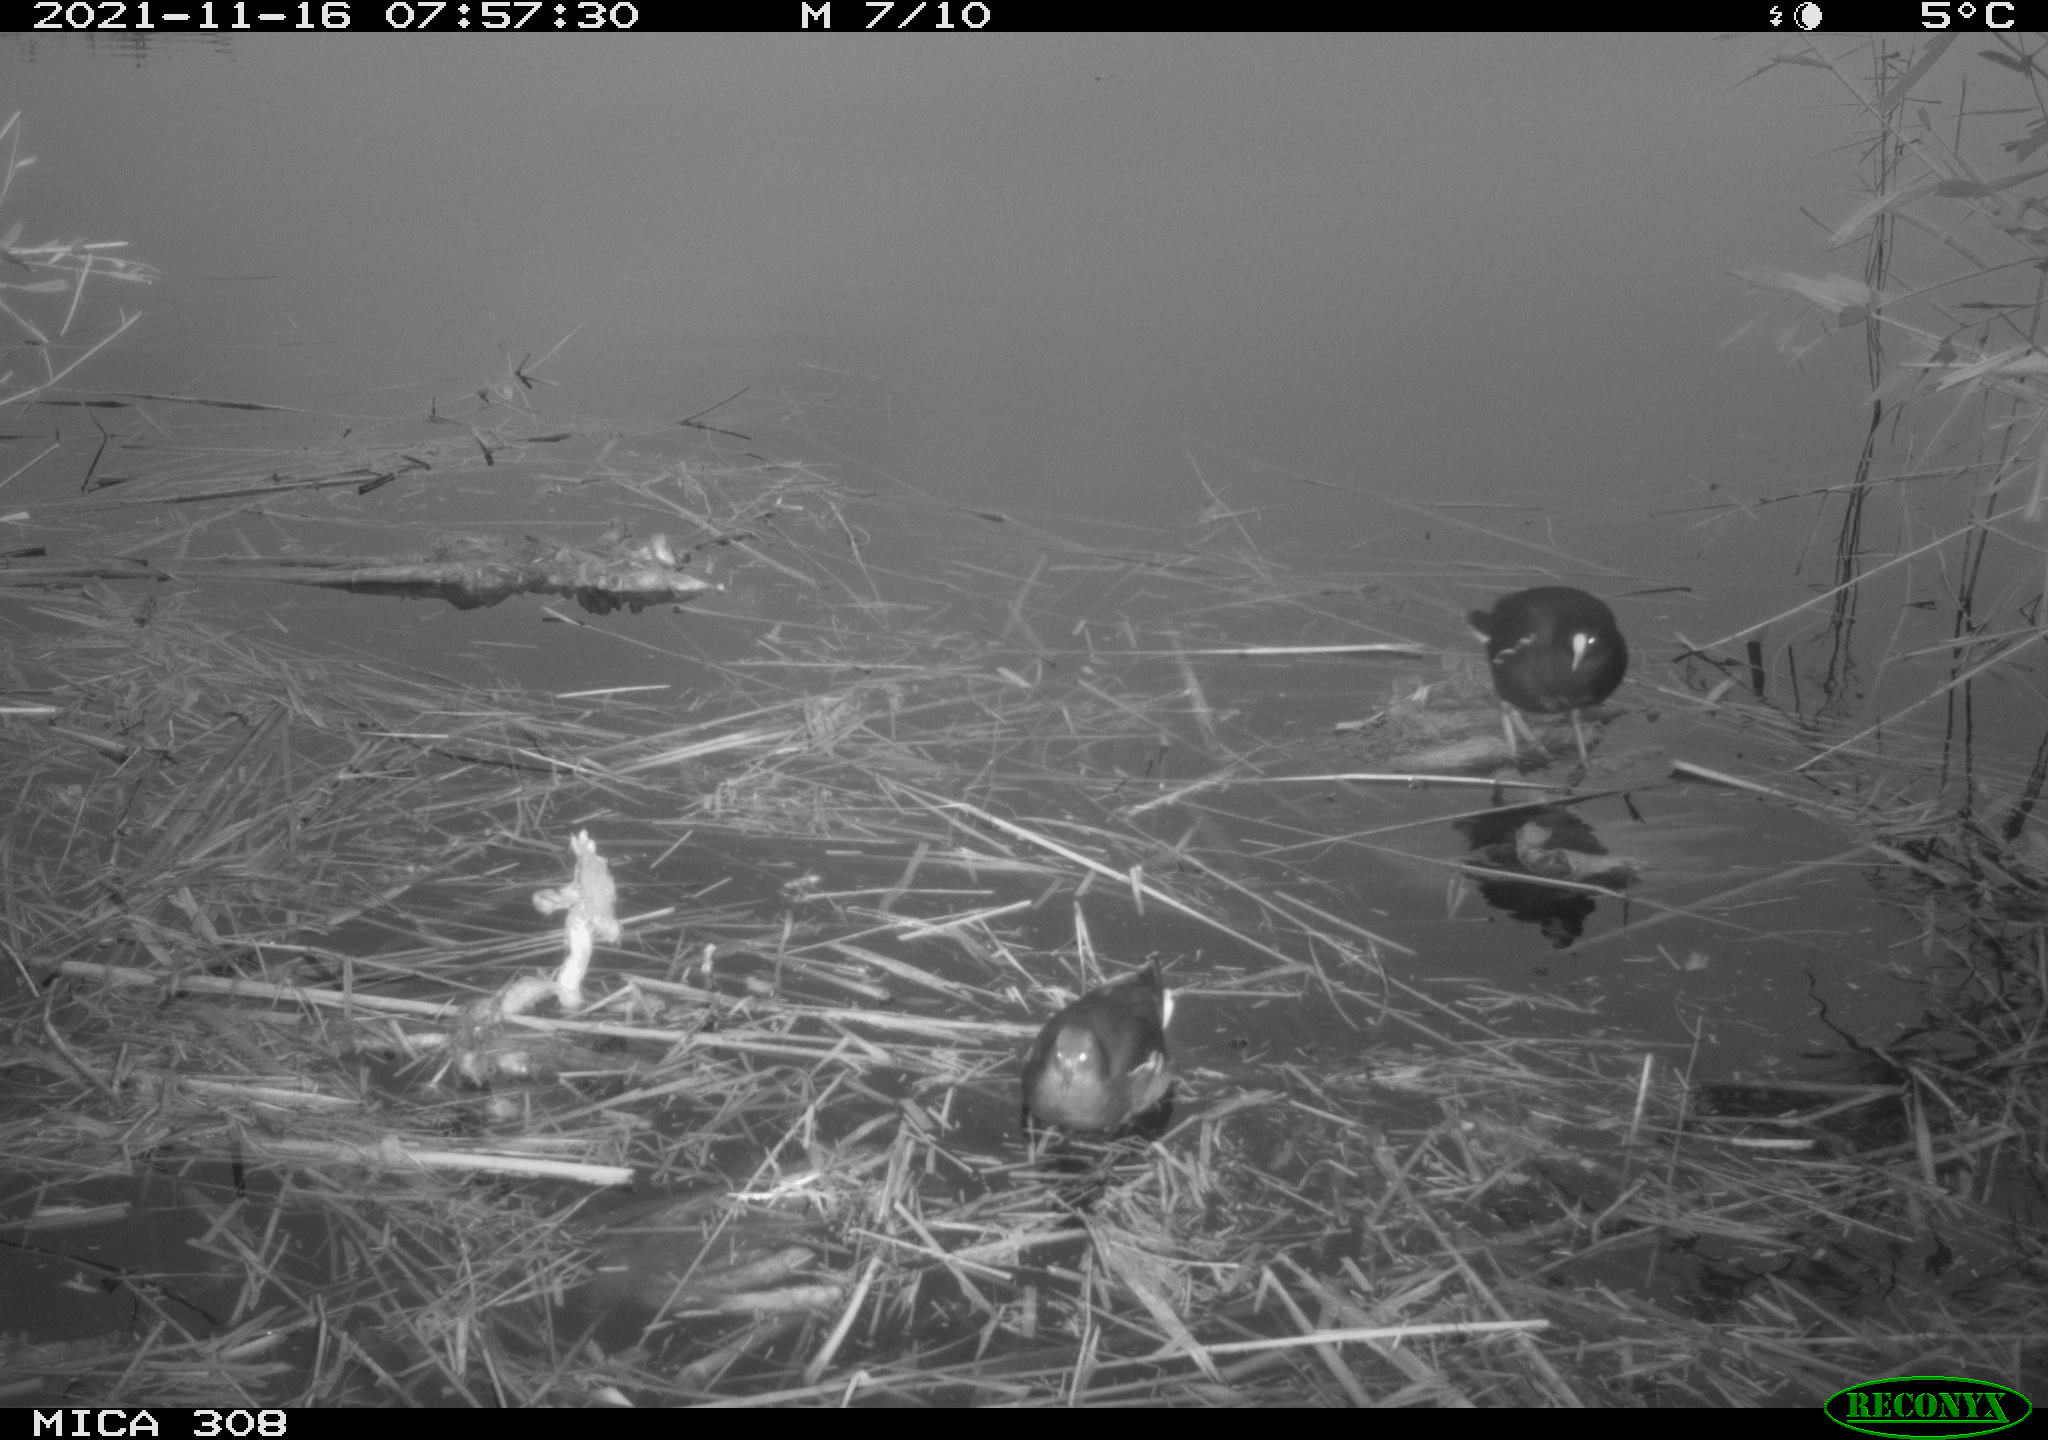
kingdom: Animalia
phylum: Chordata
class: Aves
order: Gruiformes
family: Rallidae
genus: Gallinula
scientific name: Gallinula chloropus
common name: Common moorhen
